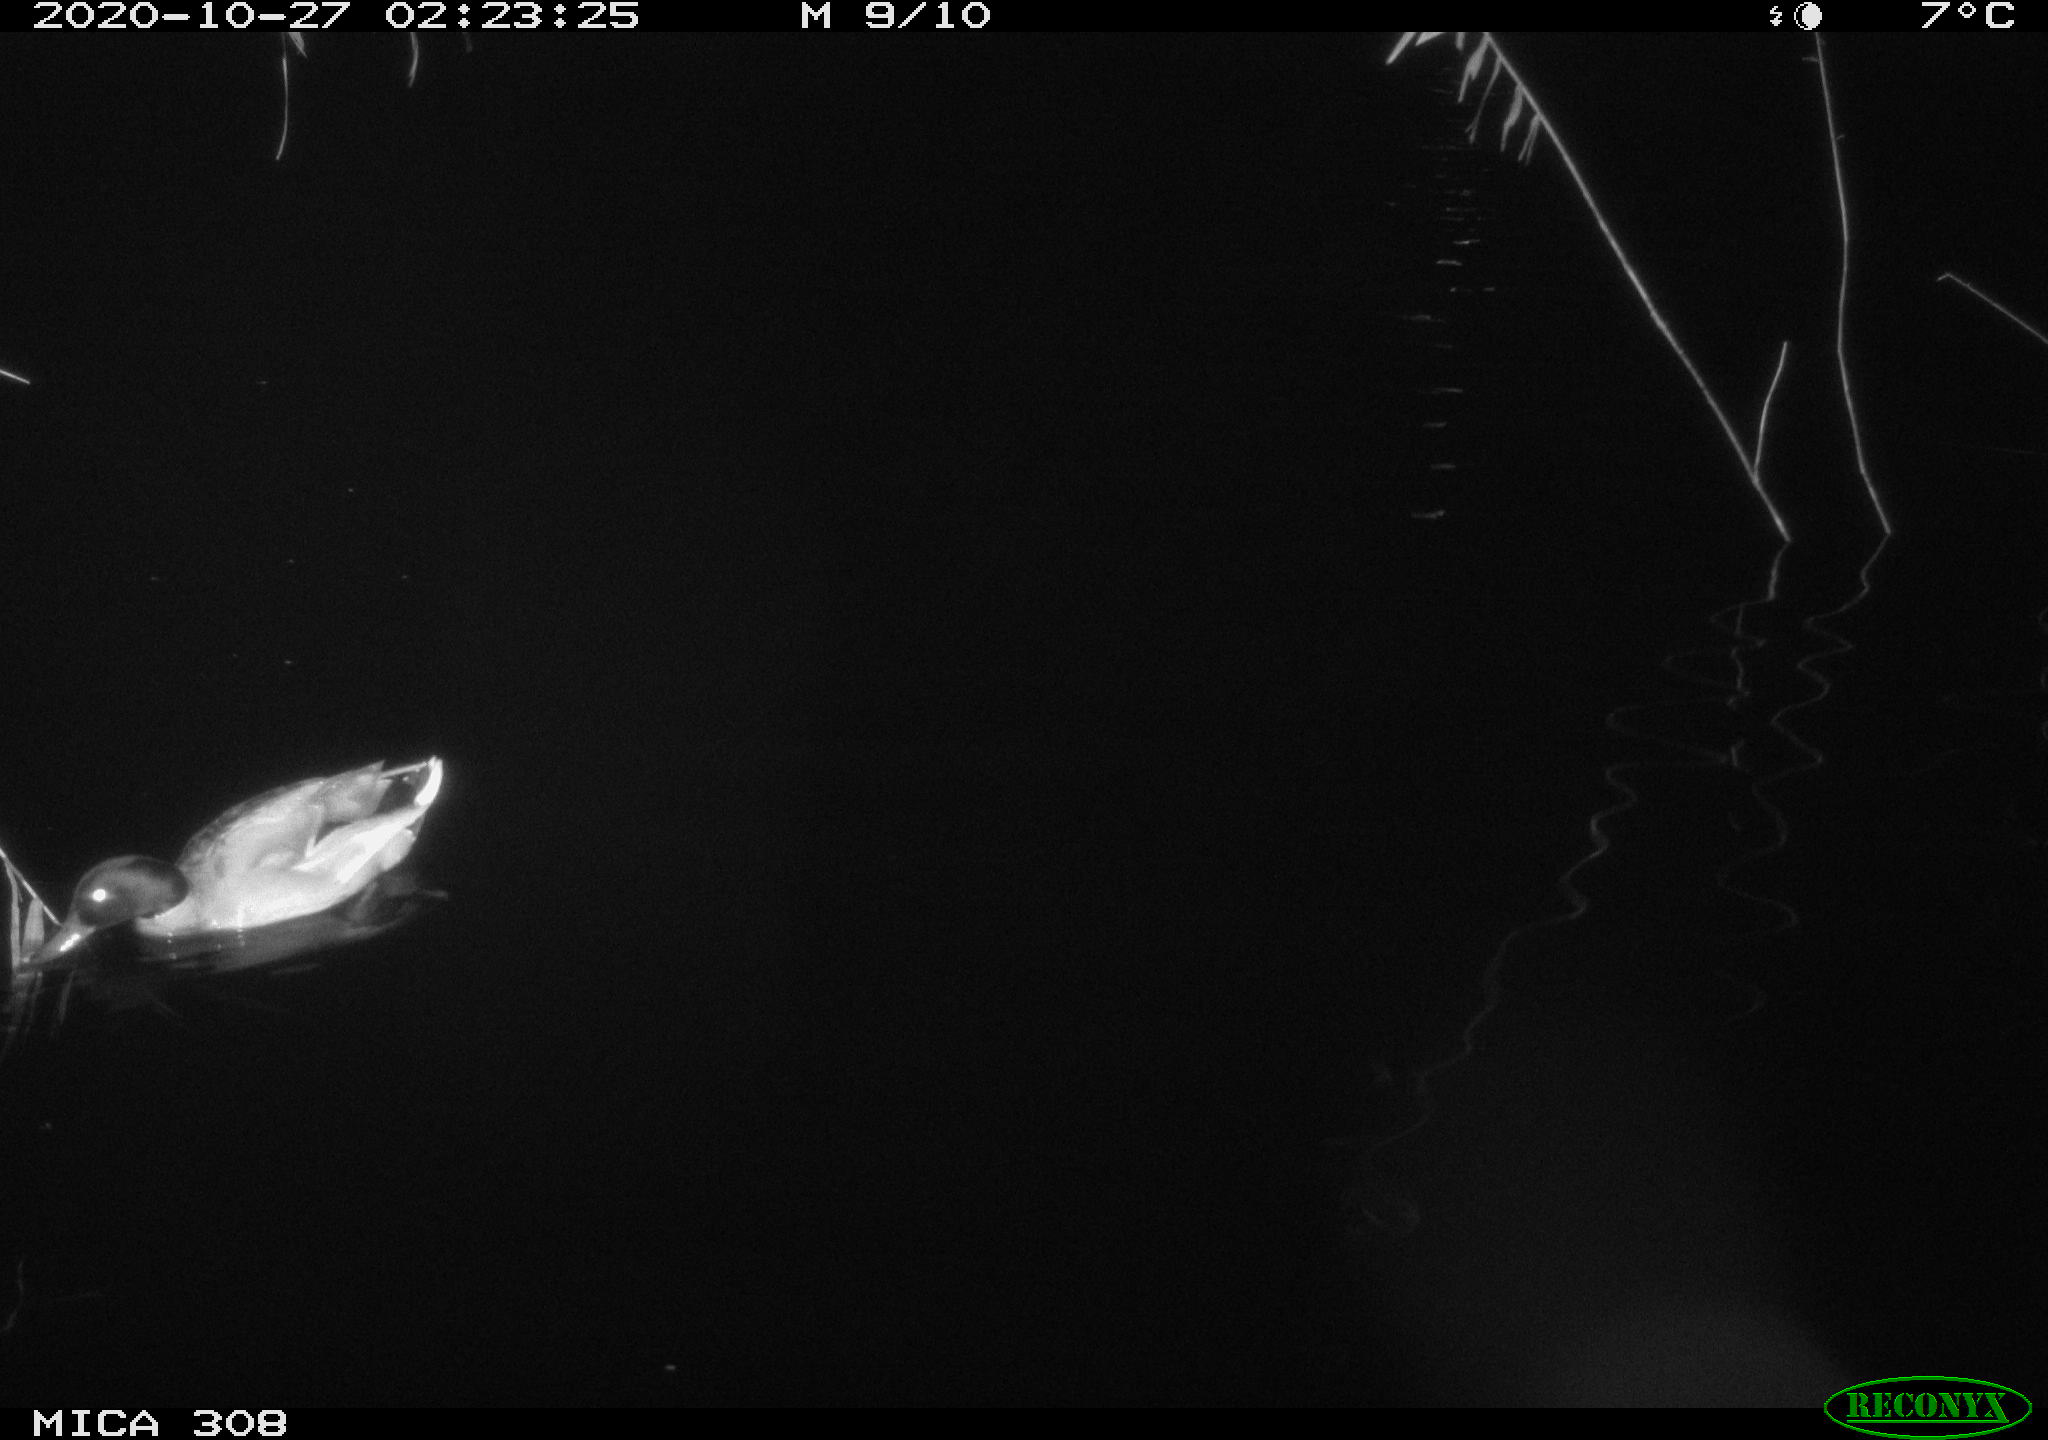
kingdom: Animalia
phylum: Chordata
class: Aves
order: Anseriformes
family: Anatidae
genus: Anas
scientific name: Anas platyrhynchos
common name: Mallard
